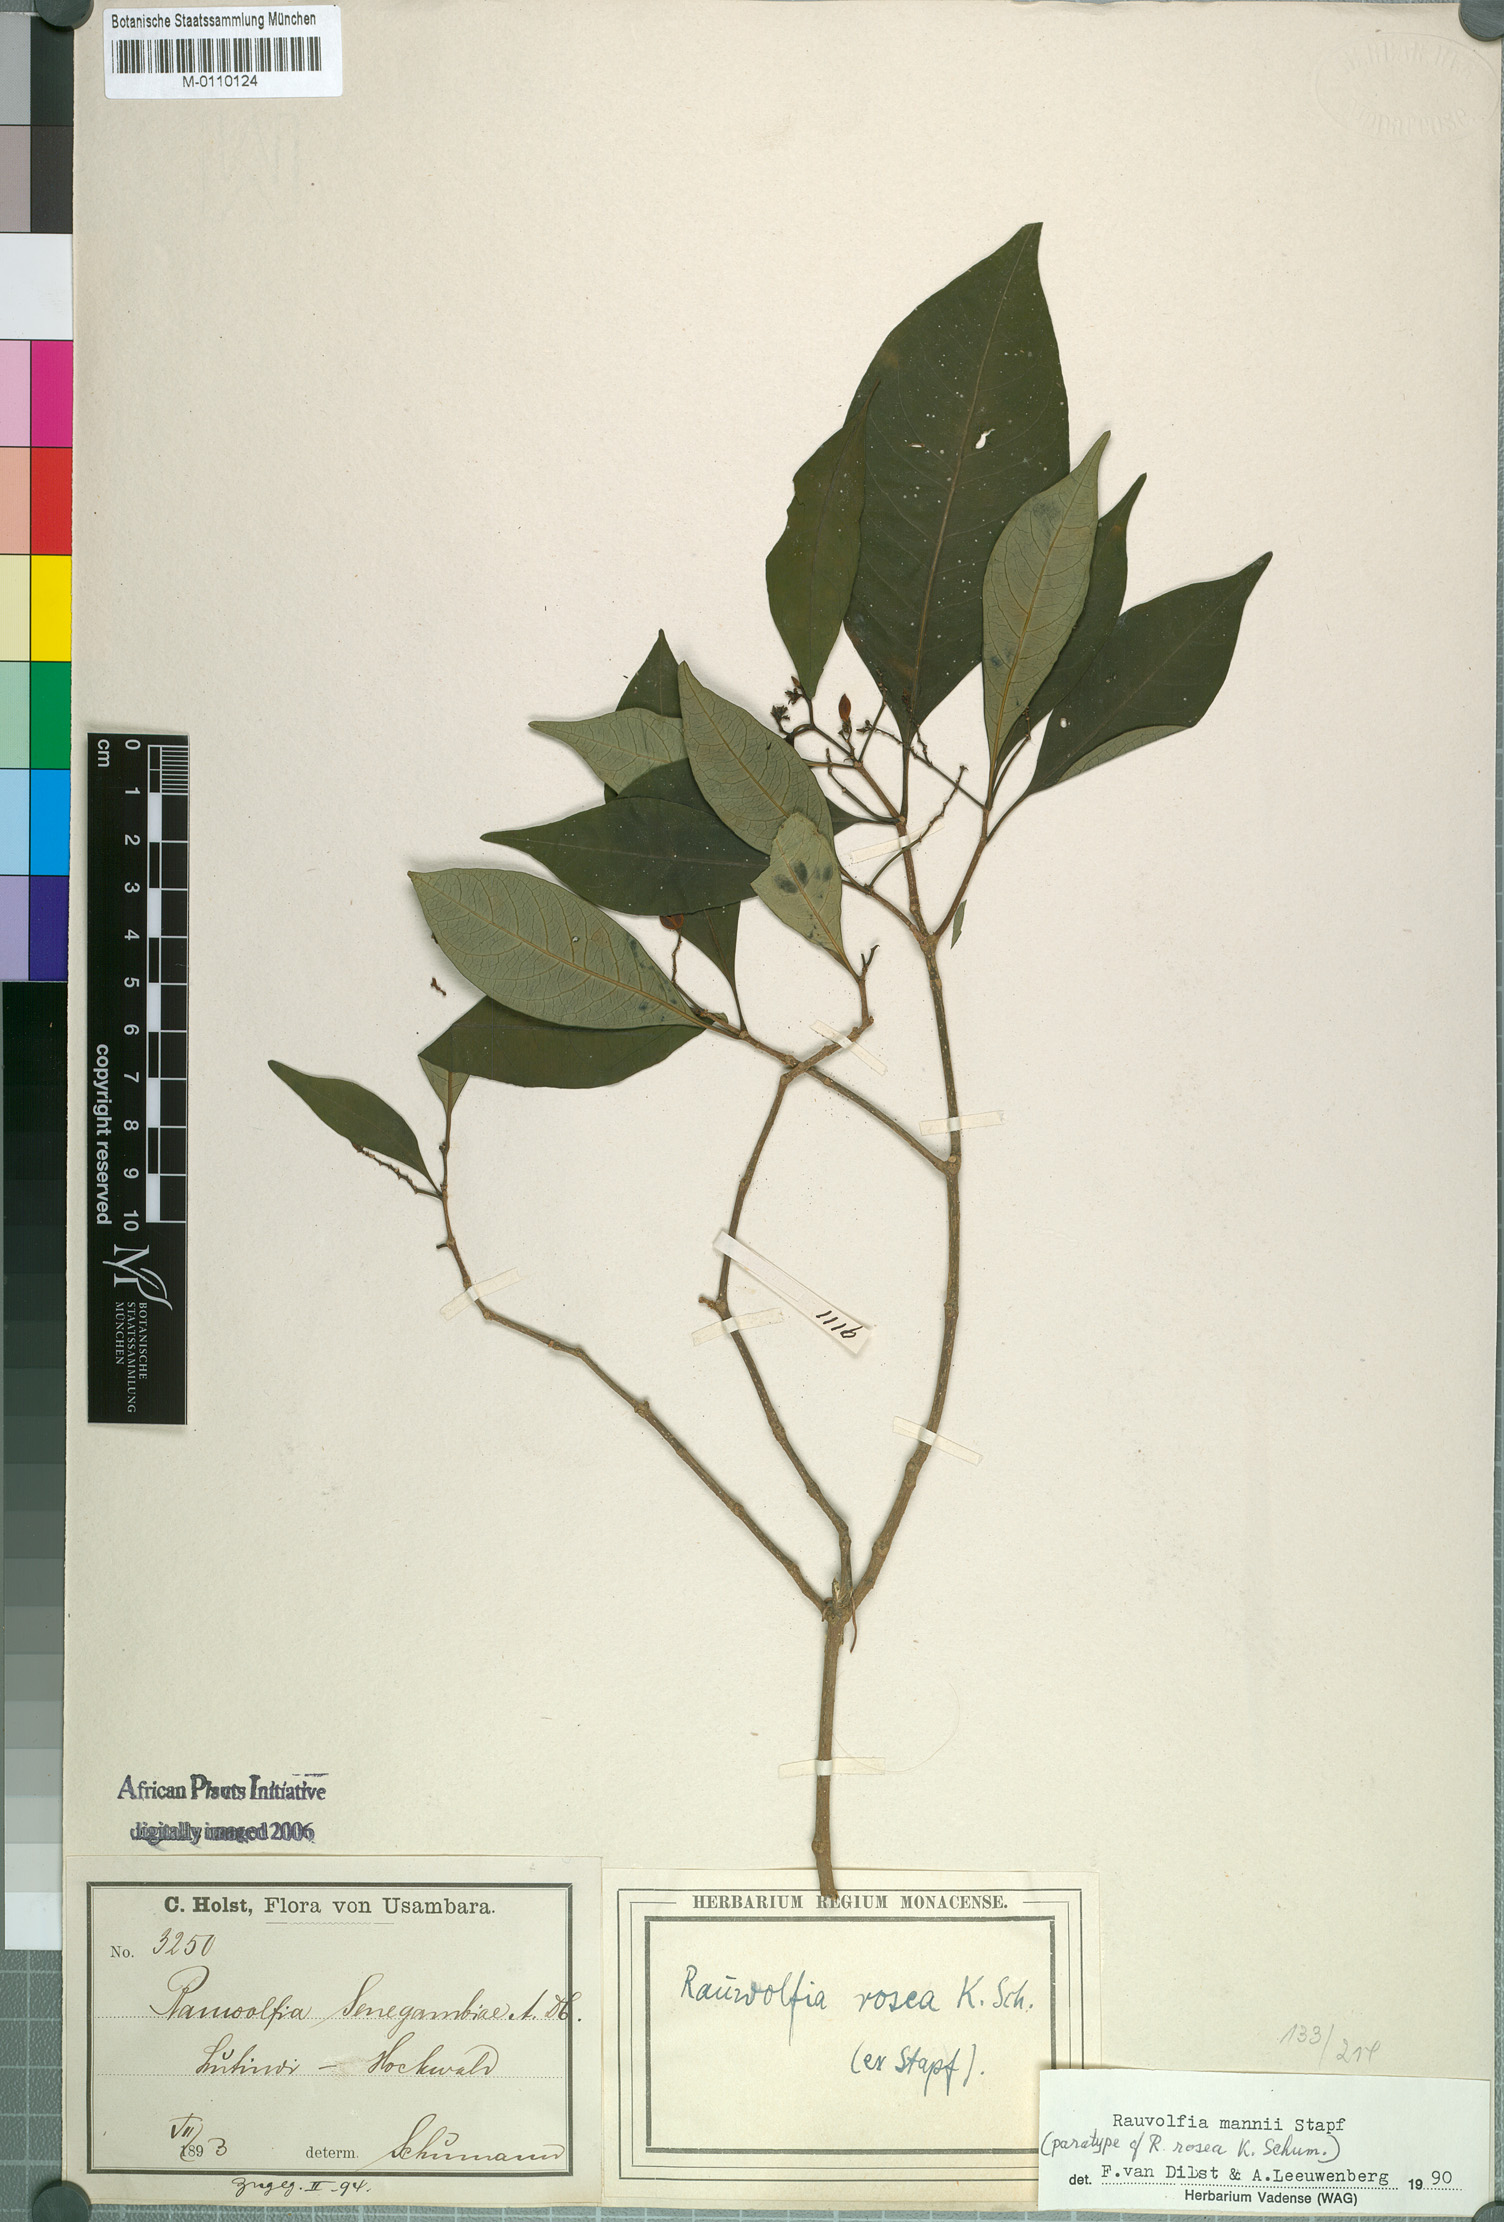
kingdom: Plantae
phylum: Tracheophyta
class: Magnoliopsida
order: Gentianales
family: Apocynaceae
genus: Rauvolfia
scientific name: Rauvolfia mannii
